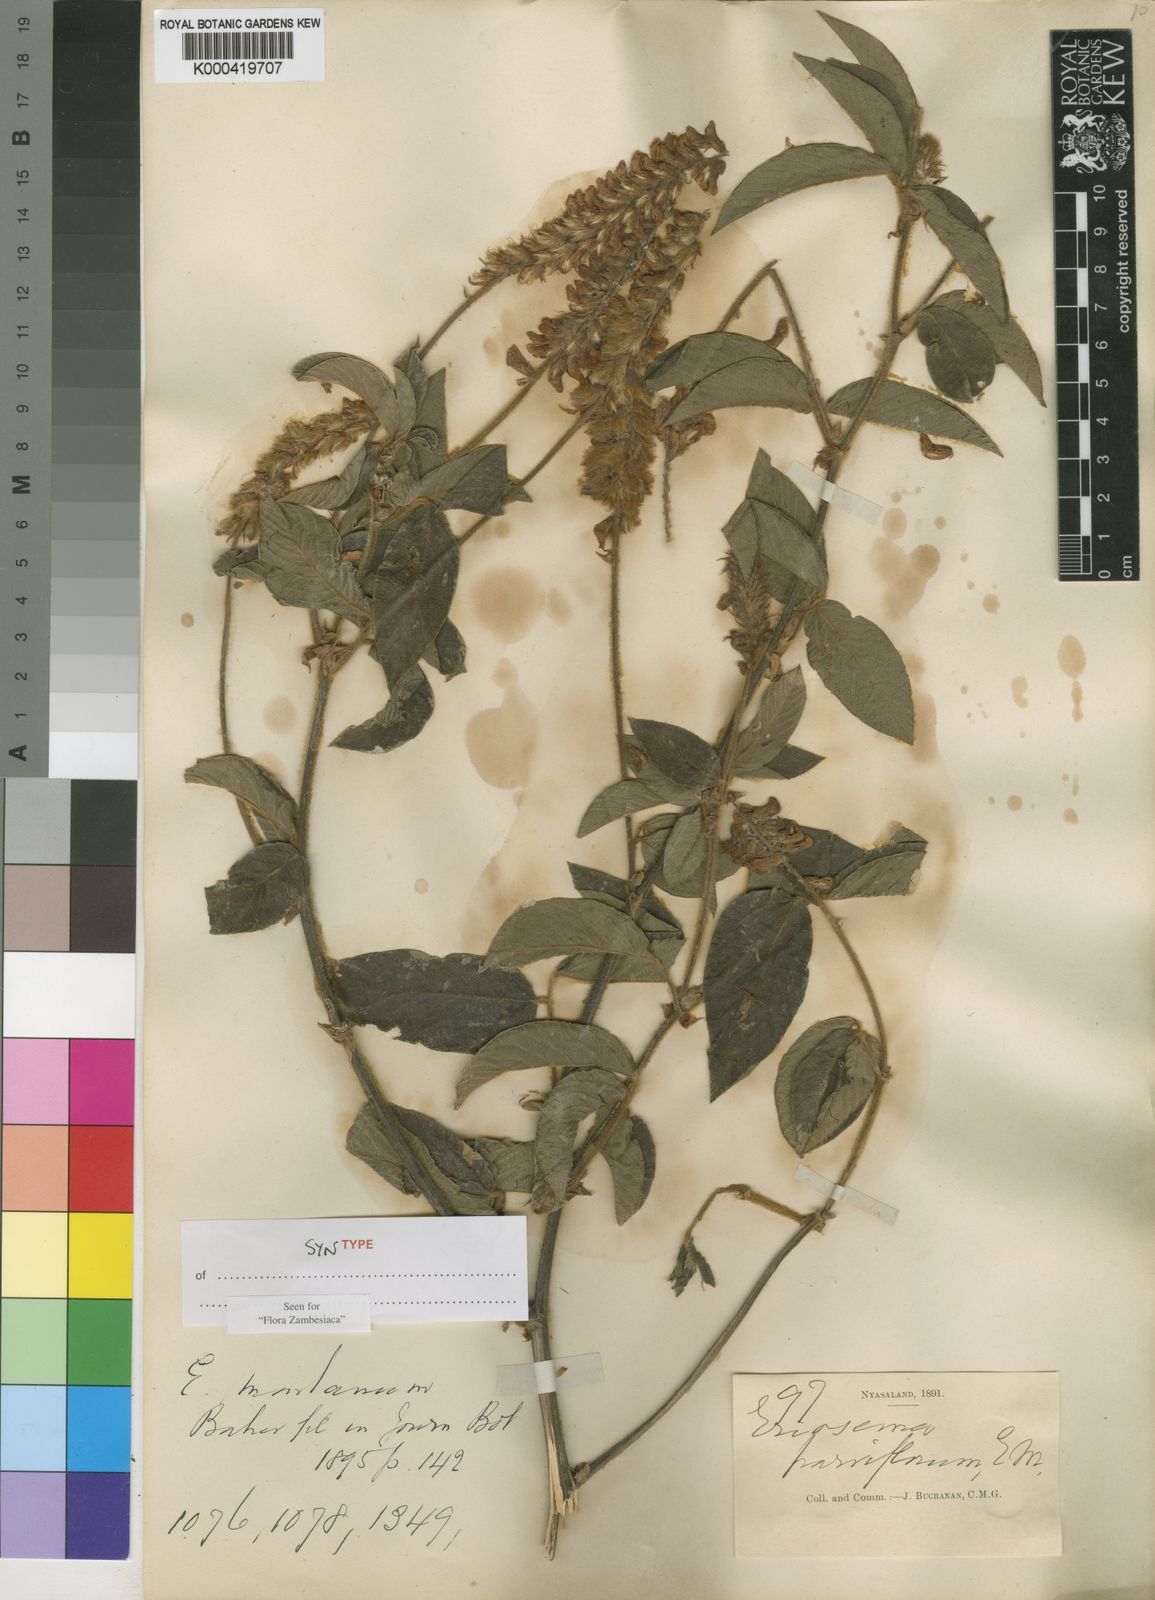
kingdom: Plantae
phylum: Tracheophyta
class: Magnoliopsida
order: Fabales
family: Fabaceae
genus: Eriosema
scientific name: Eriosema montanum
